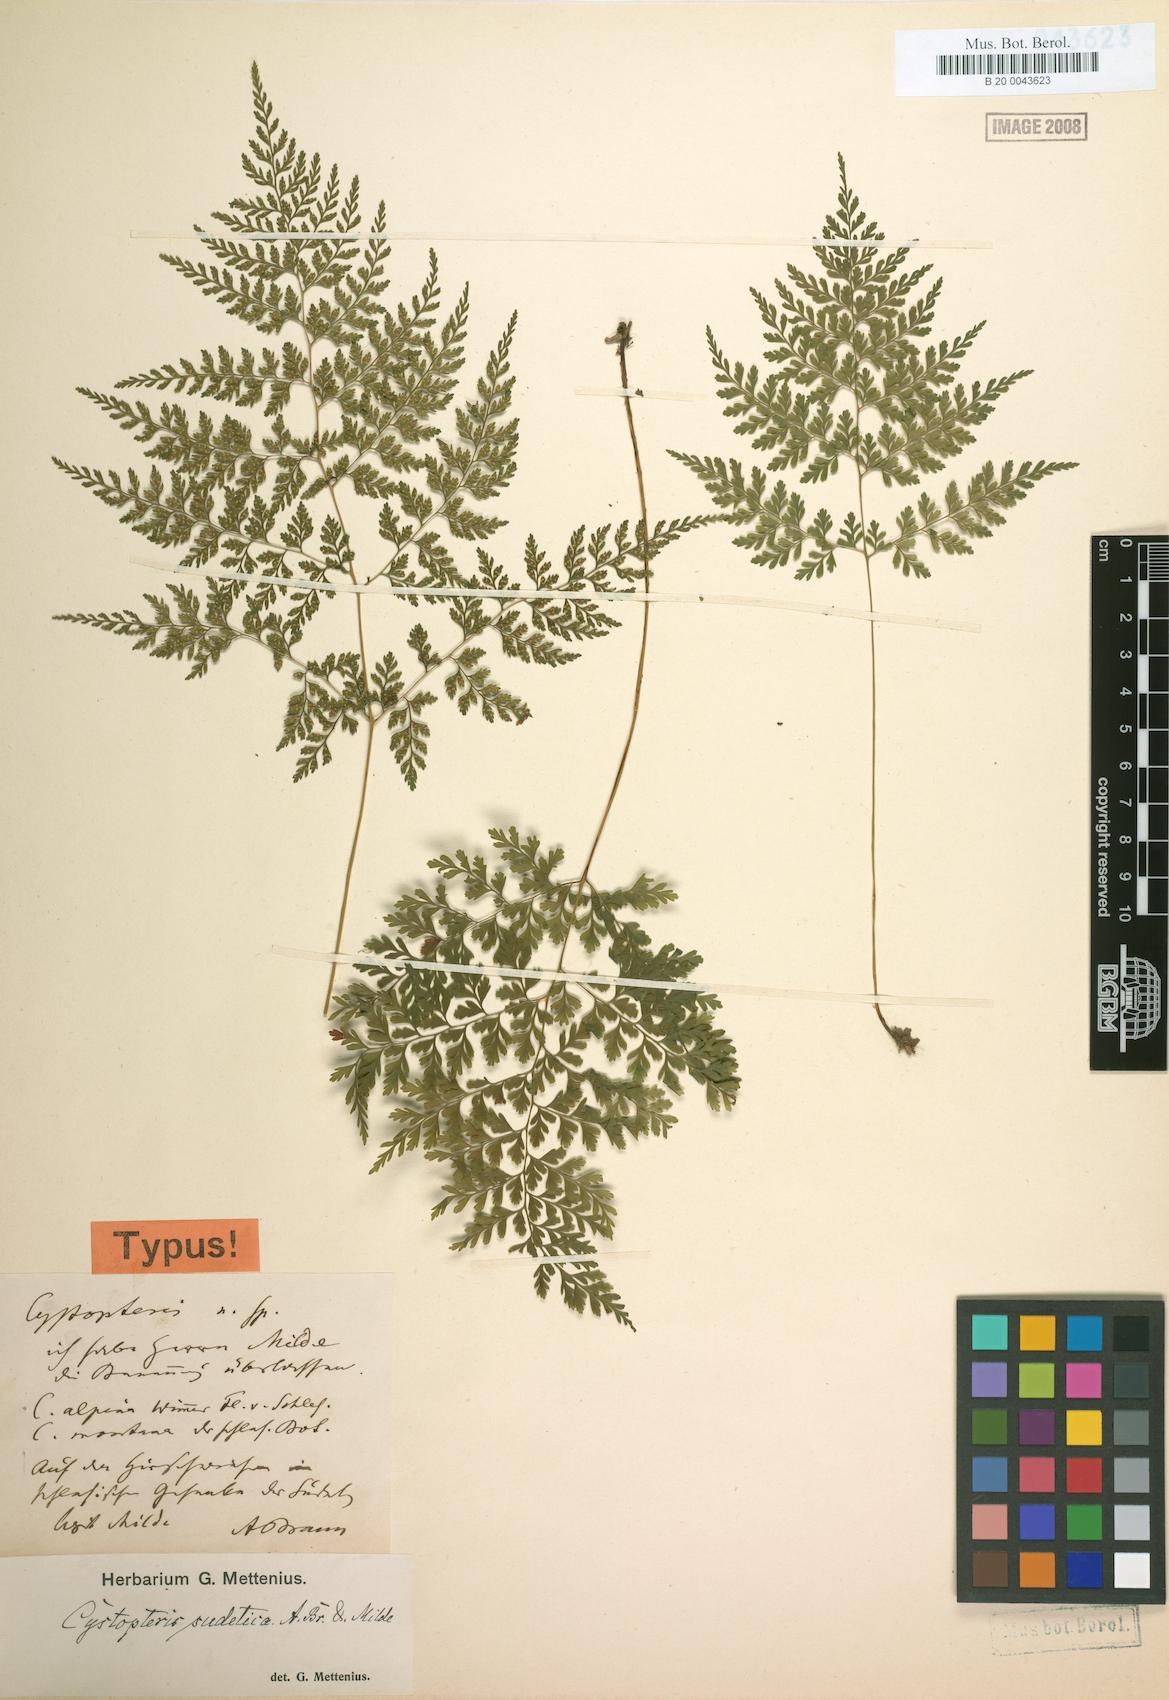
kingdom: Plantae
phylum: Tracheophyta
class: Polypodiopsida
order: Polypodiales
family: Cystopteridaceae
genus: Cystopteris
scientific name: Cystopteris sudetica
